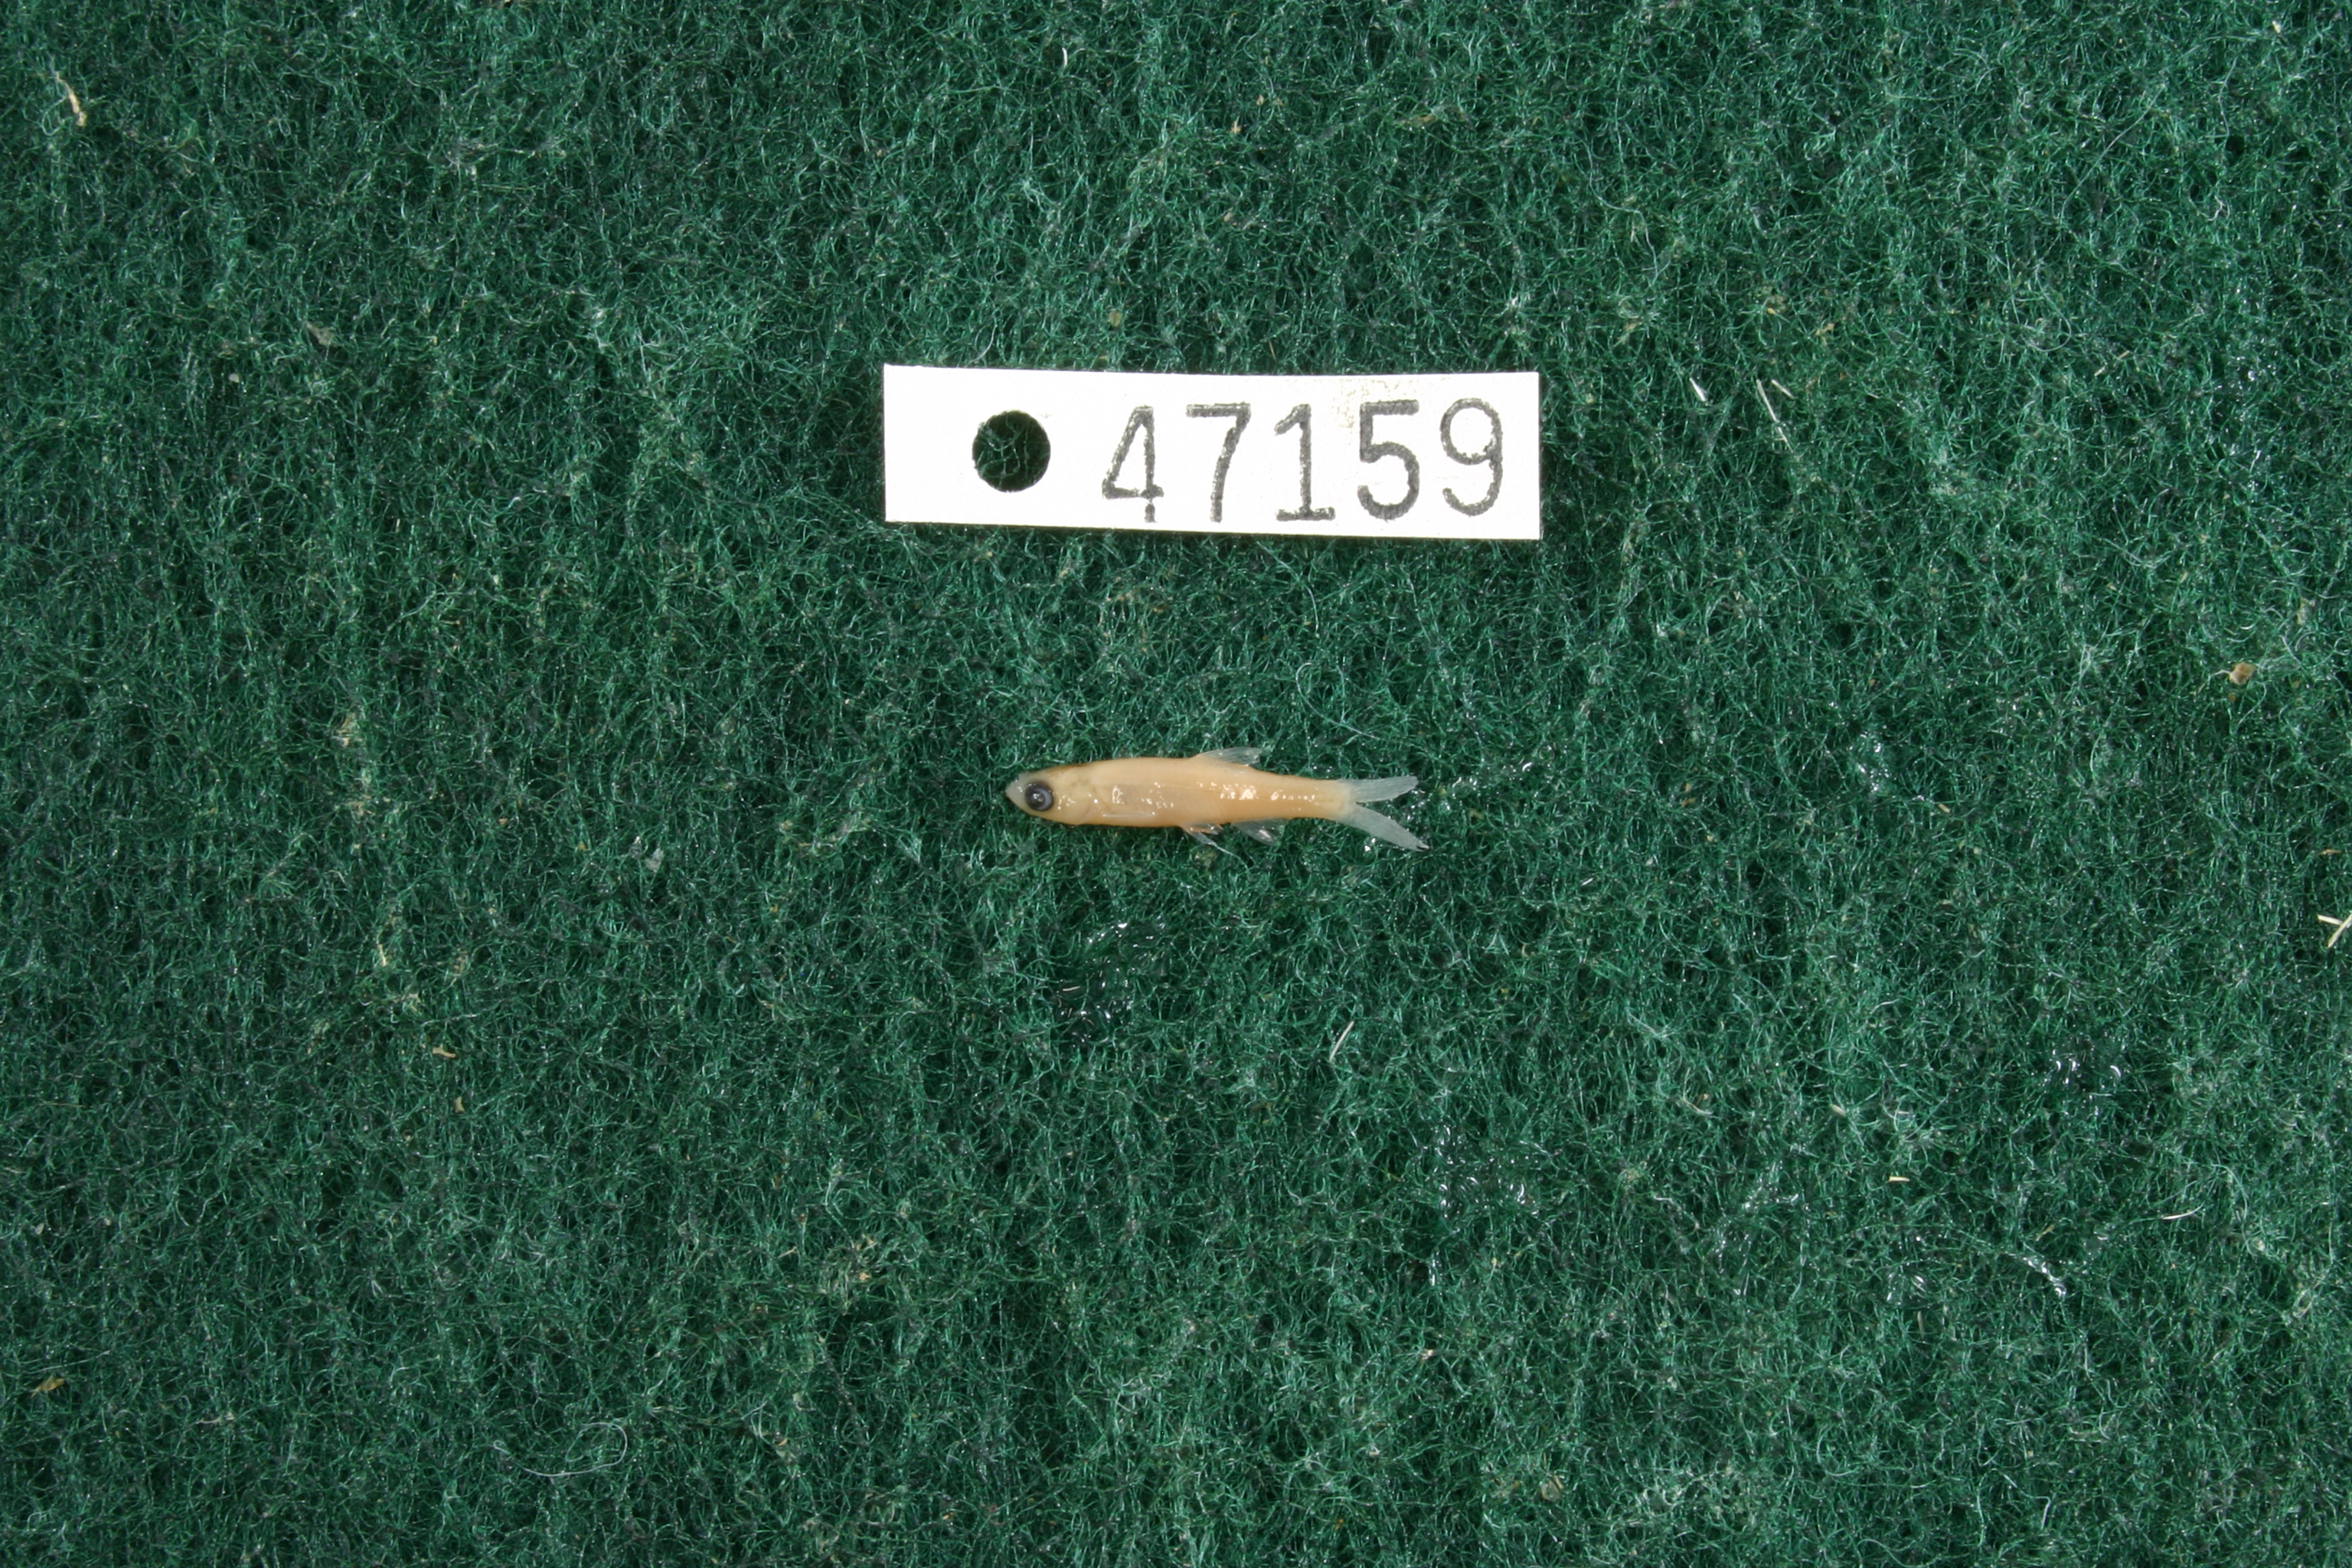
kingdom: Animalia
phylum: Chordata
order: Cypriniformes
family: Cyprinidae
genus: Notropis
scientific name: Notropis amabilis
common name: Texas shiner
